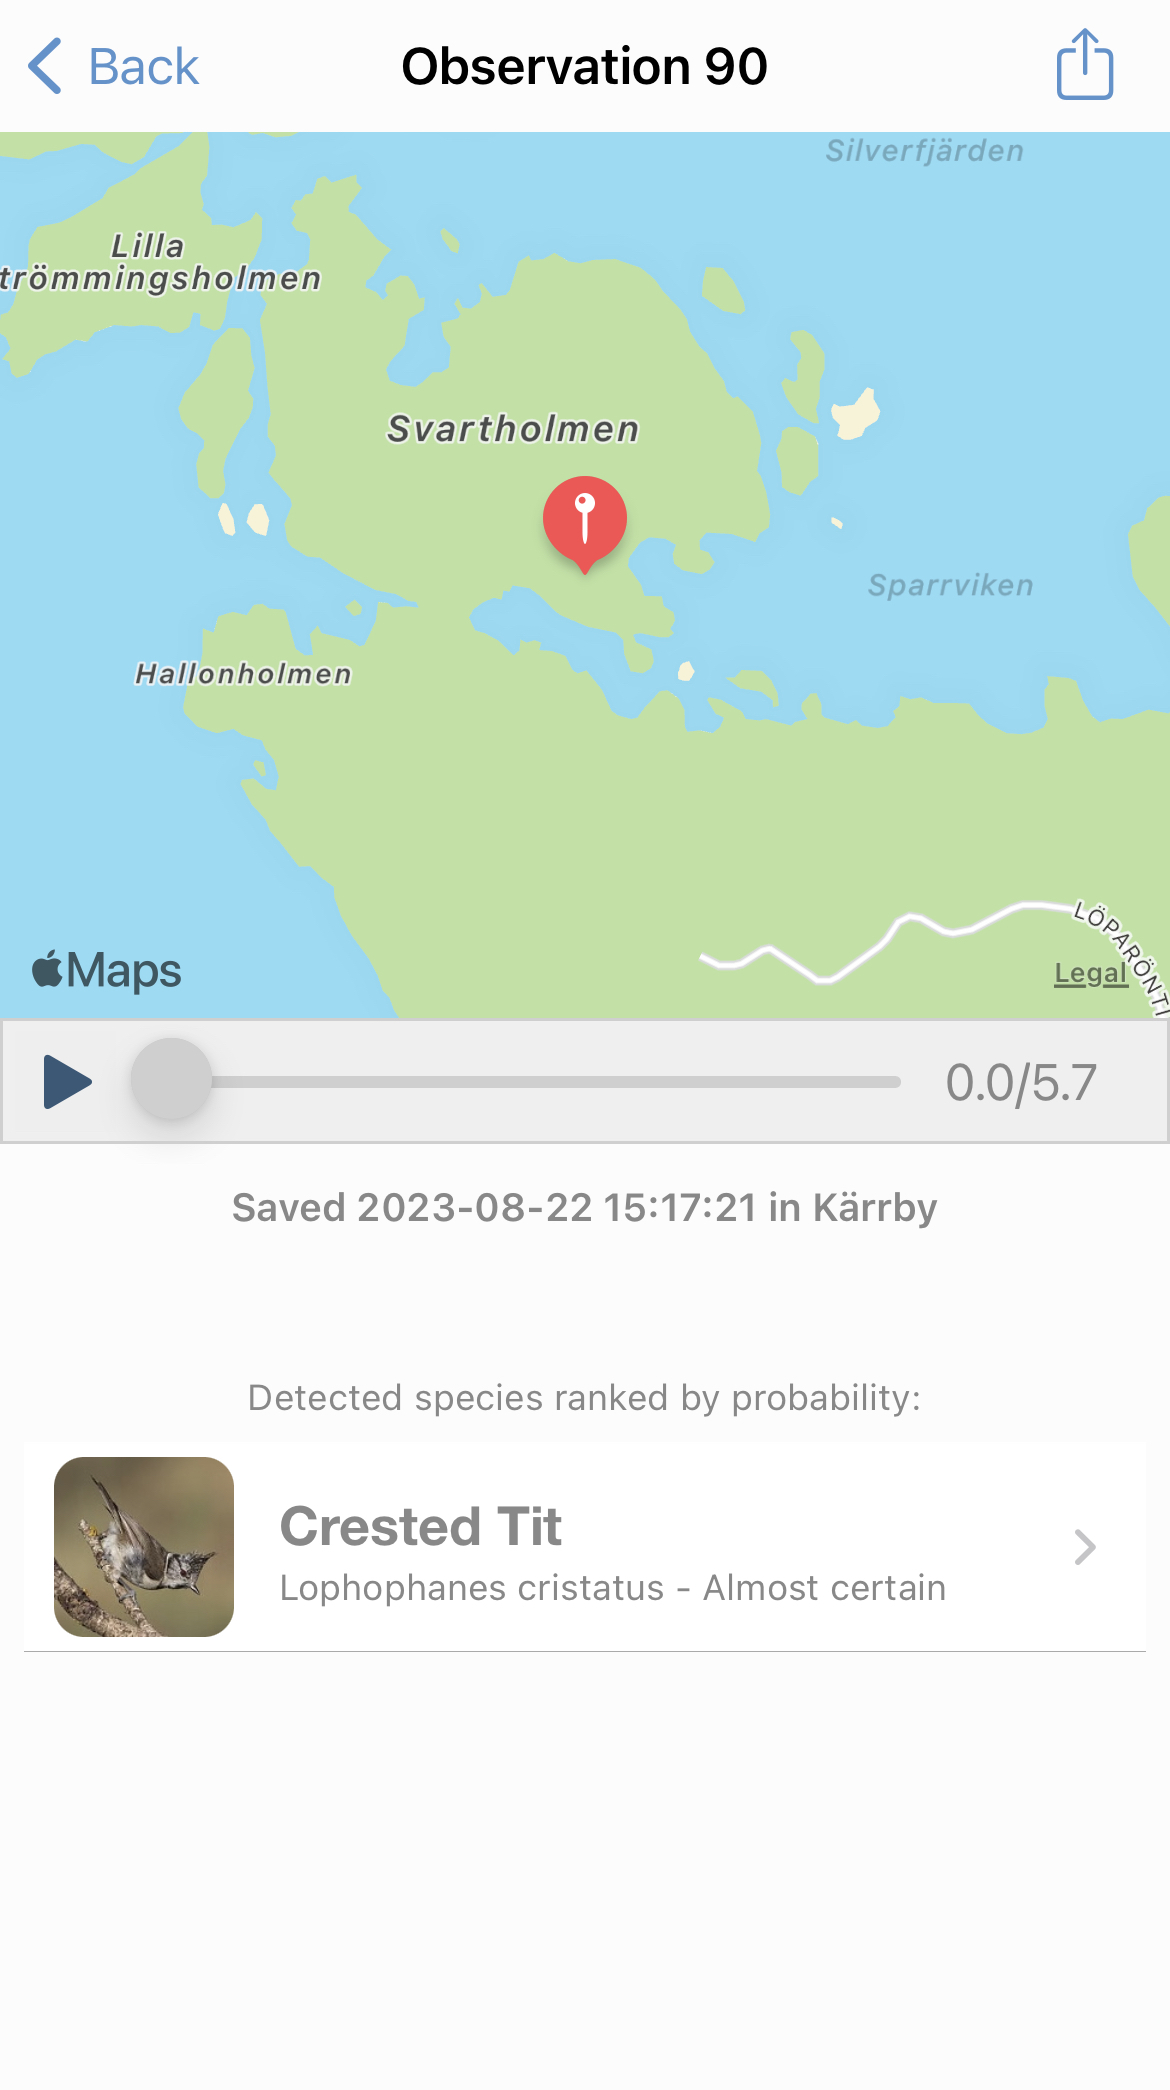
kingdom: Animalia
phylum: Chordata
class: Aves
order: Passeriformes
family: Paridae
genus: Lophophanes
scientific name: Lophophanes cristatus
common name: European crested tit
